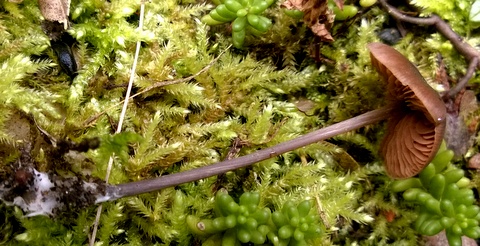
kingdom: Fungi
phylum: Basidiomycota
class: Agaricomycetes
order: Agaricales
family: Entolomataceae
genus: Entoloma
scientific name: Entoloma hebes
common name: krat-rødblad
